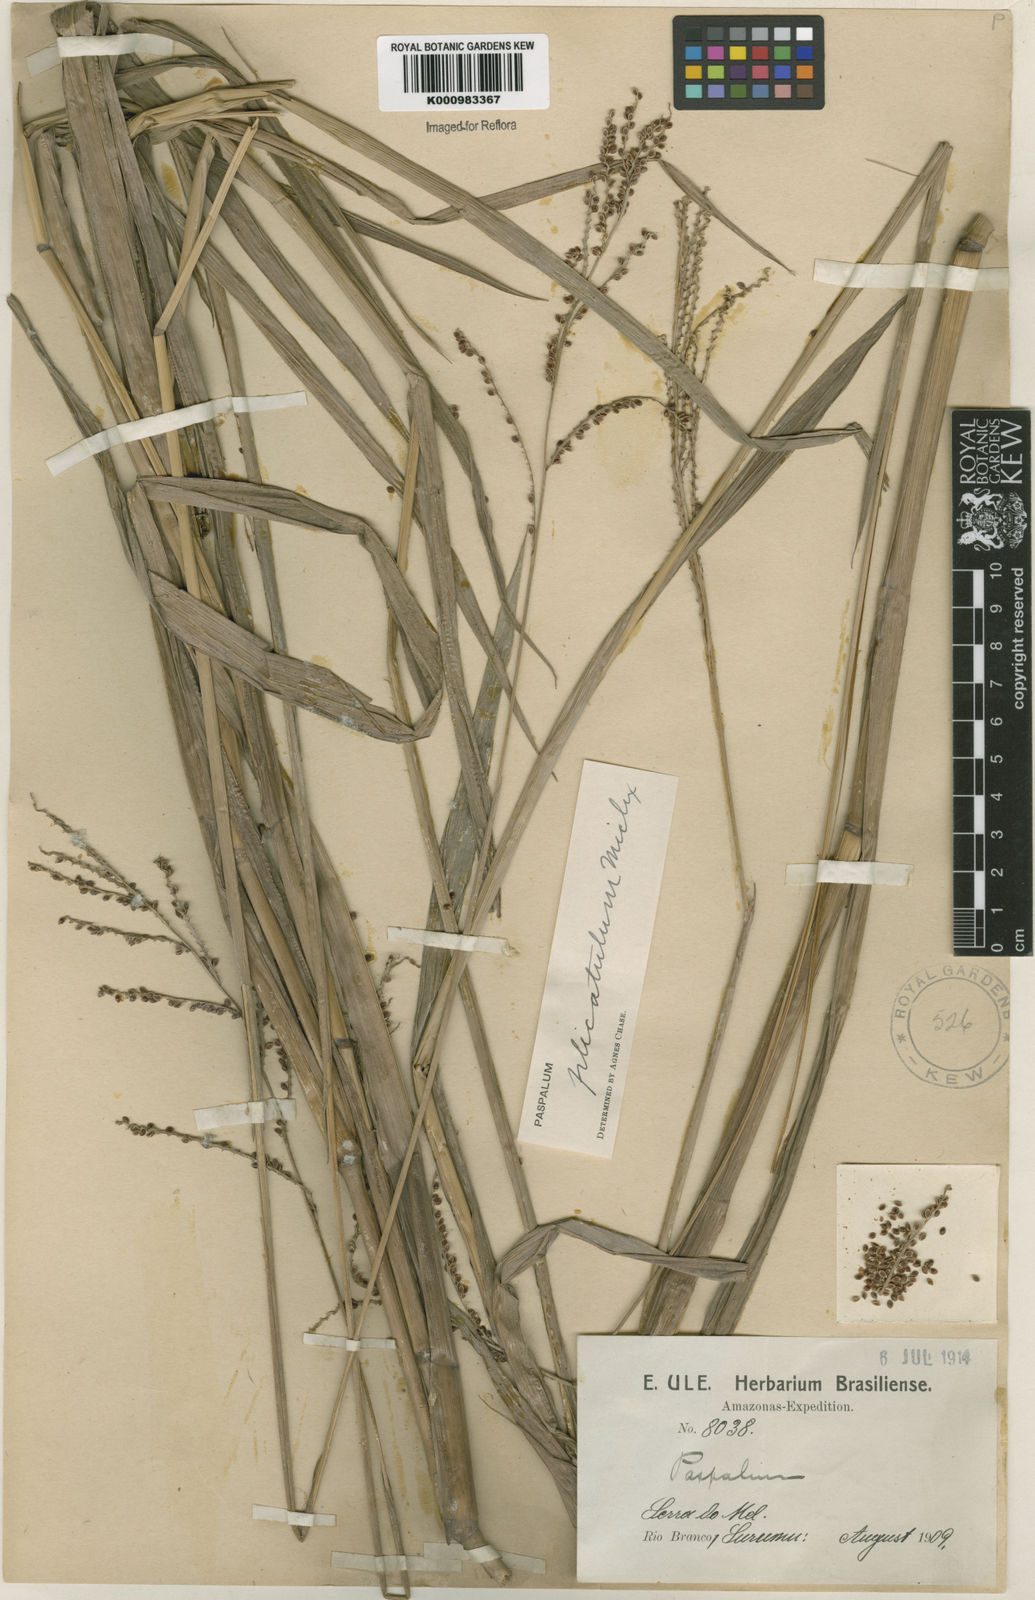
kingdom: Plantae
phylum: Tracheophyta
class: Liliopsida
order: Poales
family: Poaceae
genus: Paspalum
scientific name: Paspalum plicatulum
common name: Top paspalum
